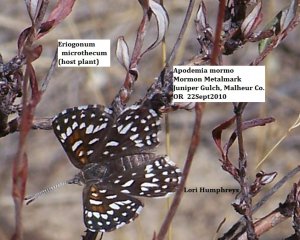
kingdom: Animalia
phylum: Arthropoda
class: Insecta
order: Lepidoptera
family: Riodinidae
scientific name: Riodinidae
